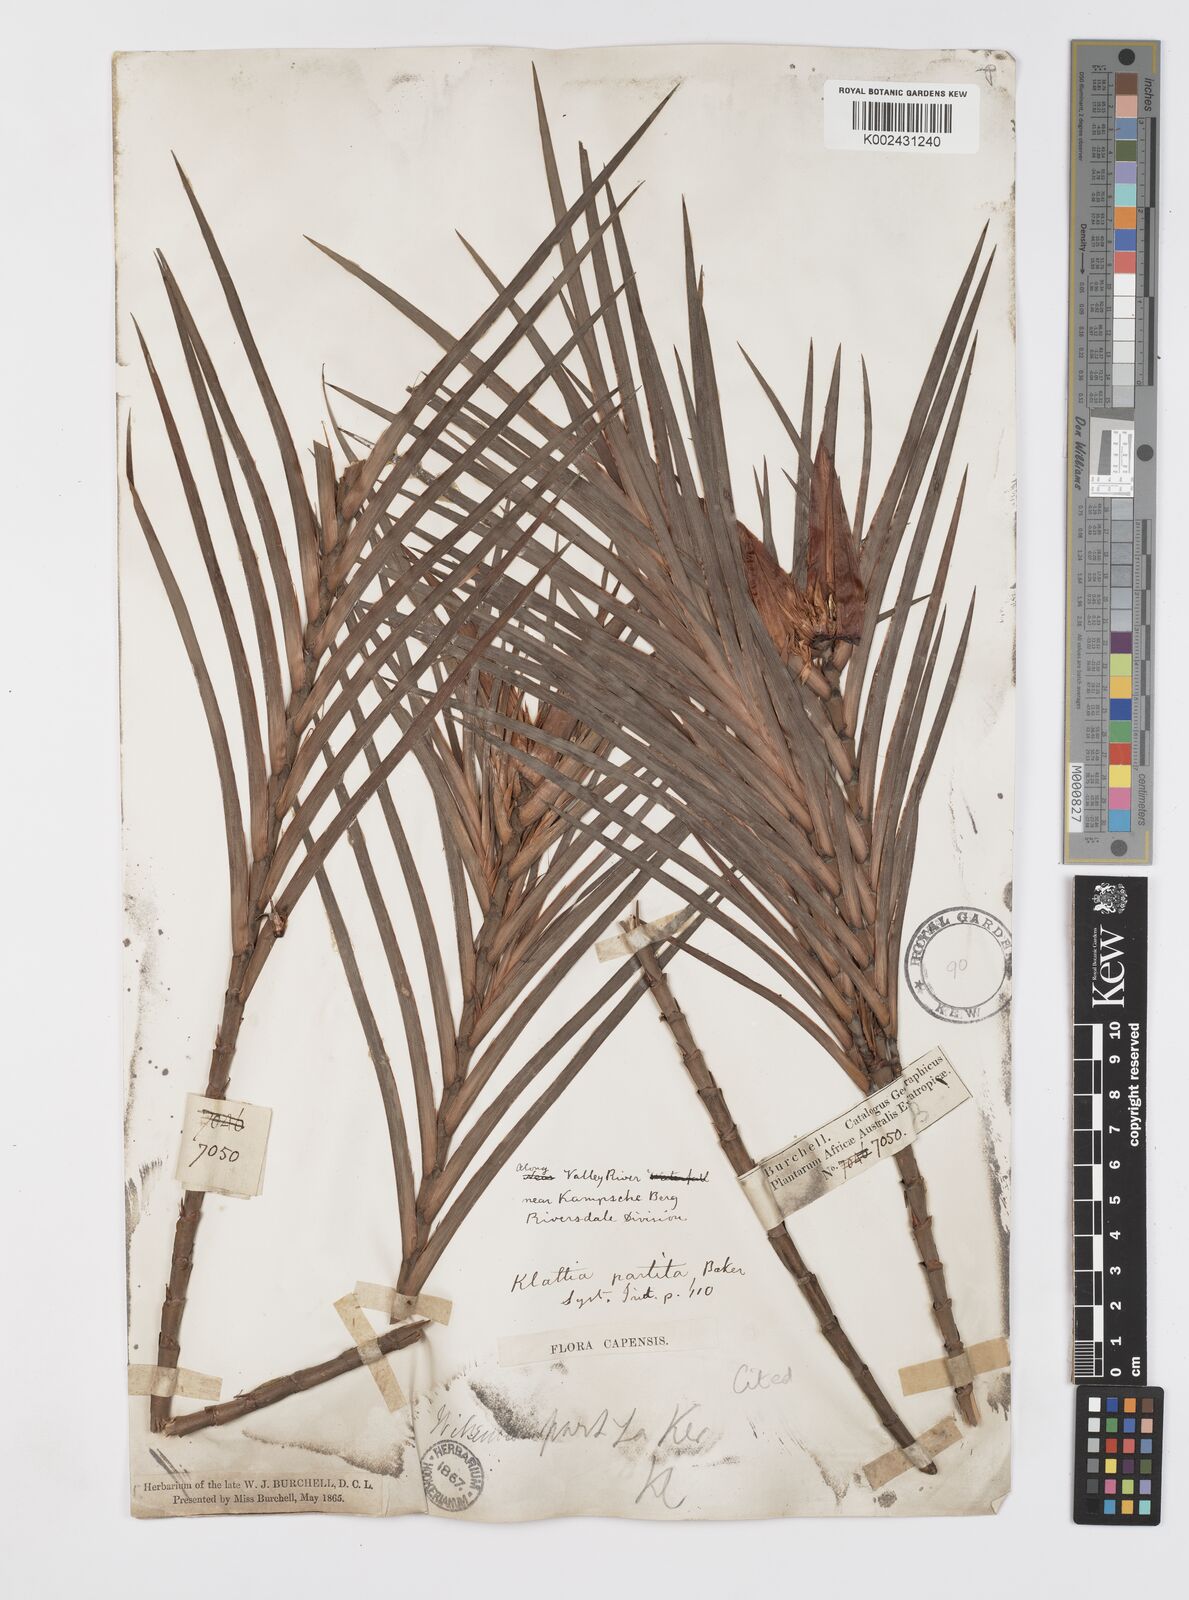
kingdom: Plantae
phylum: Tracheophyta
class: Liliopsida
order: Asparagales
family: Iridaceae
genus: Klattia
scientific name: Klattia partita
